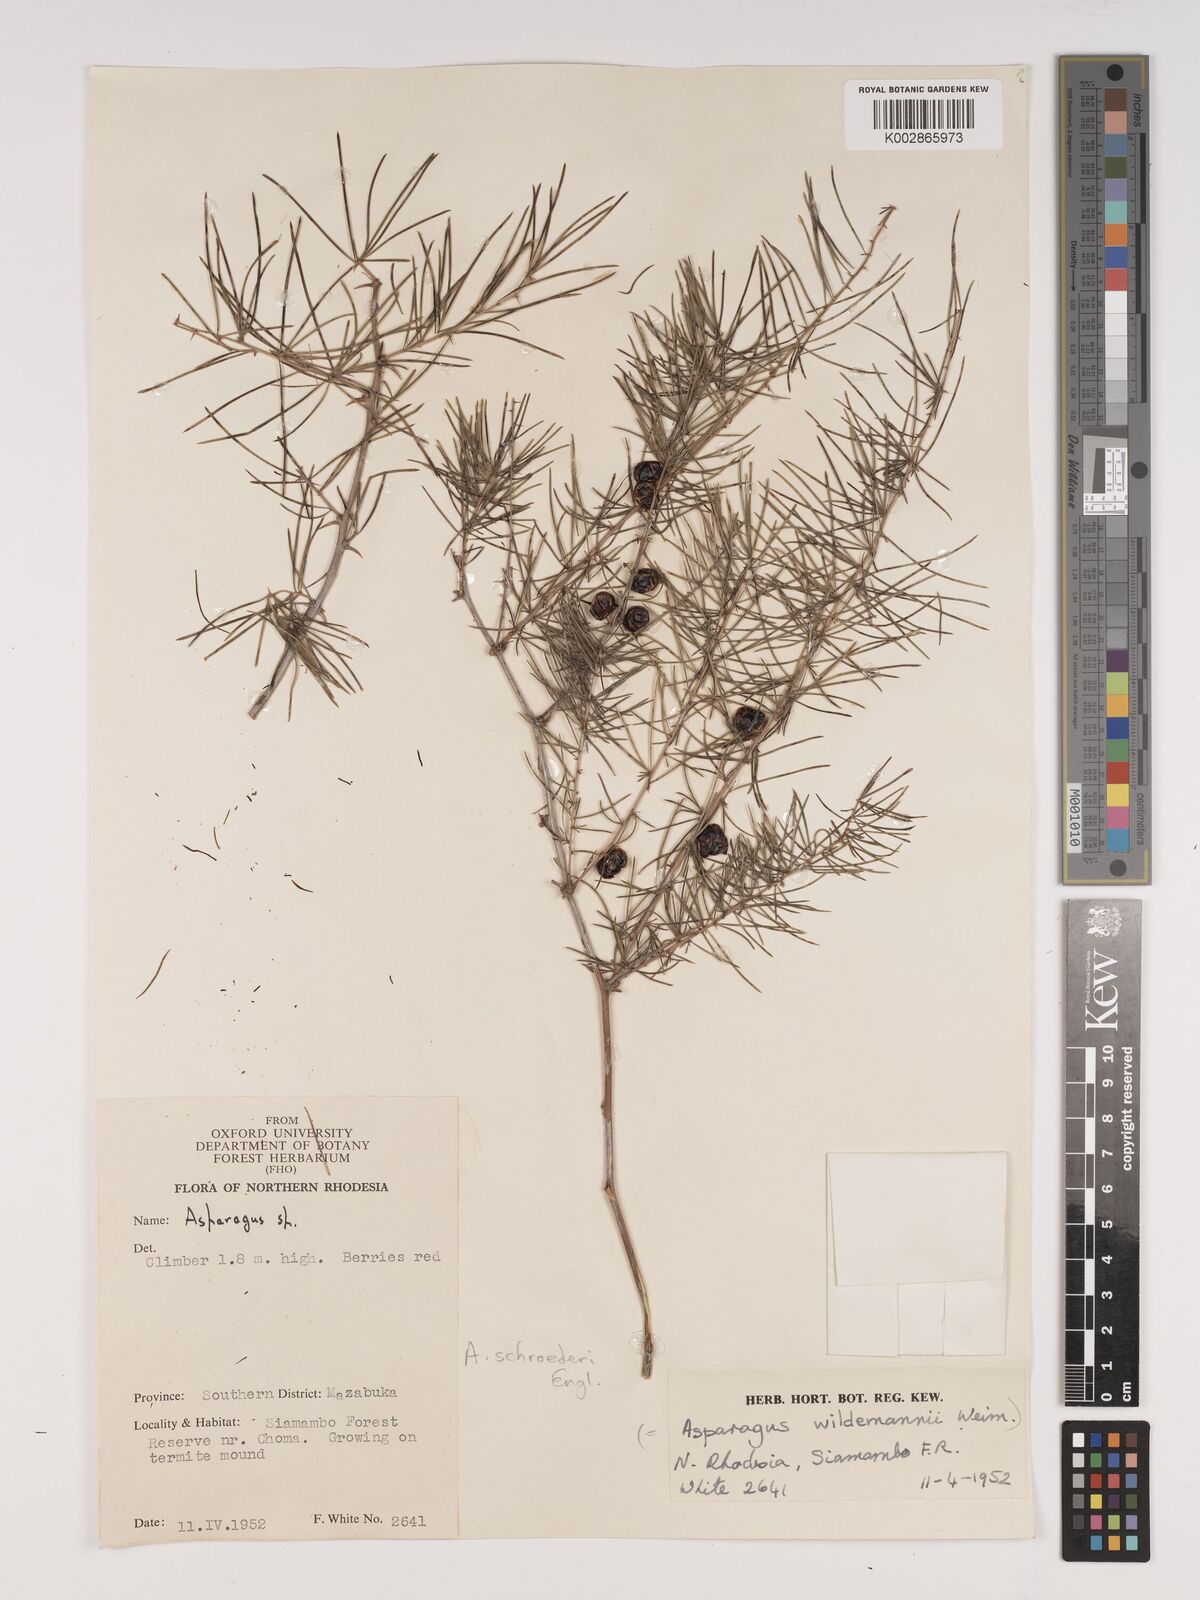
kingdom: Plantae
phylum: Tracheophyta
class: Liliopsida
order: Asparagales
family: Asparagaceae
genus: Asparagus
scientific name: Asparagus schroederi
